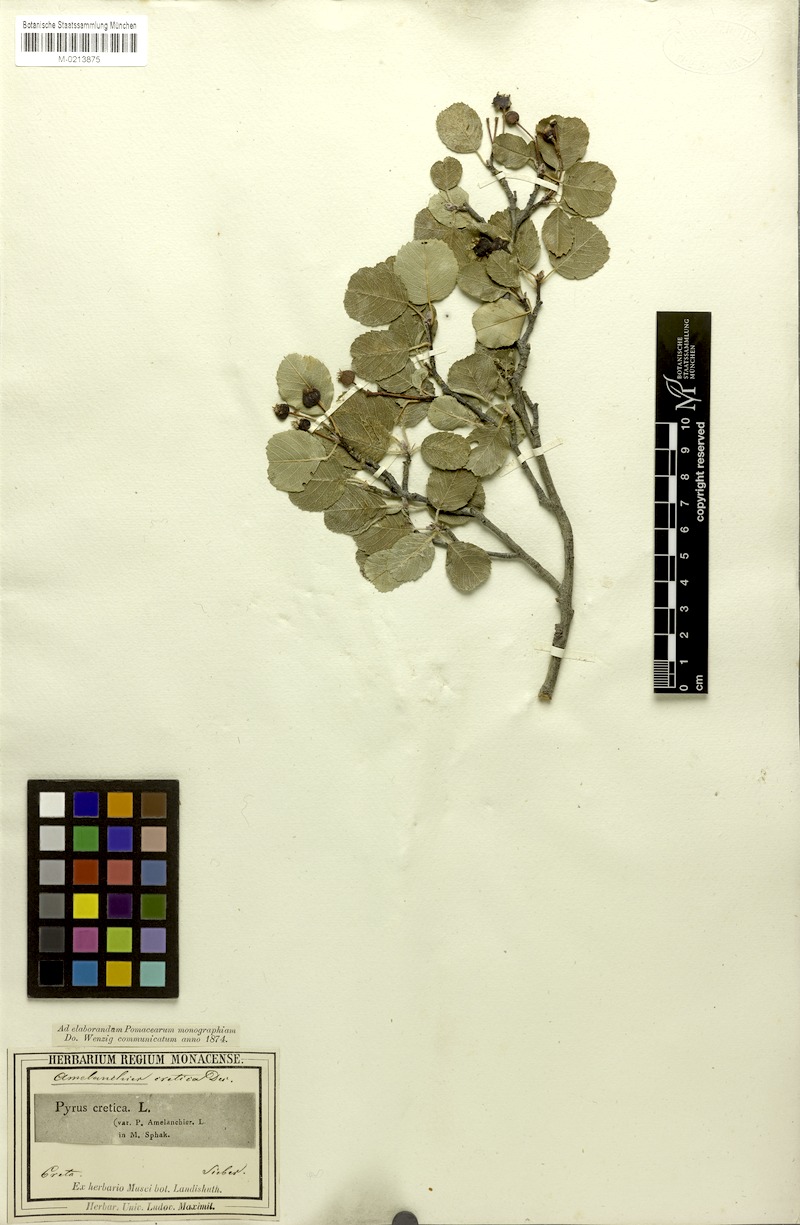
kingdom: Plantae
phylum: Tracheophyta
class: Magnoliopsida
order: Rosales
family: Rosaceae
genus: Amelanchier
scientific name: Amelanchier ovalis
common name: Serviceberry
